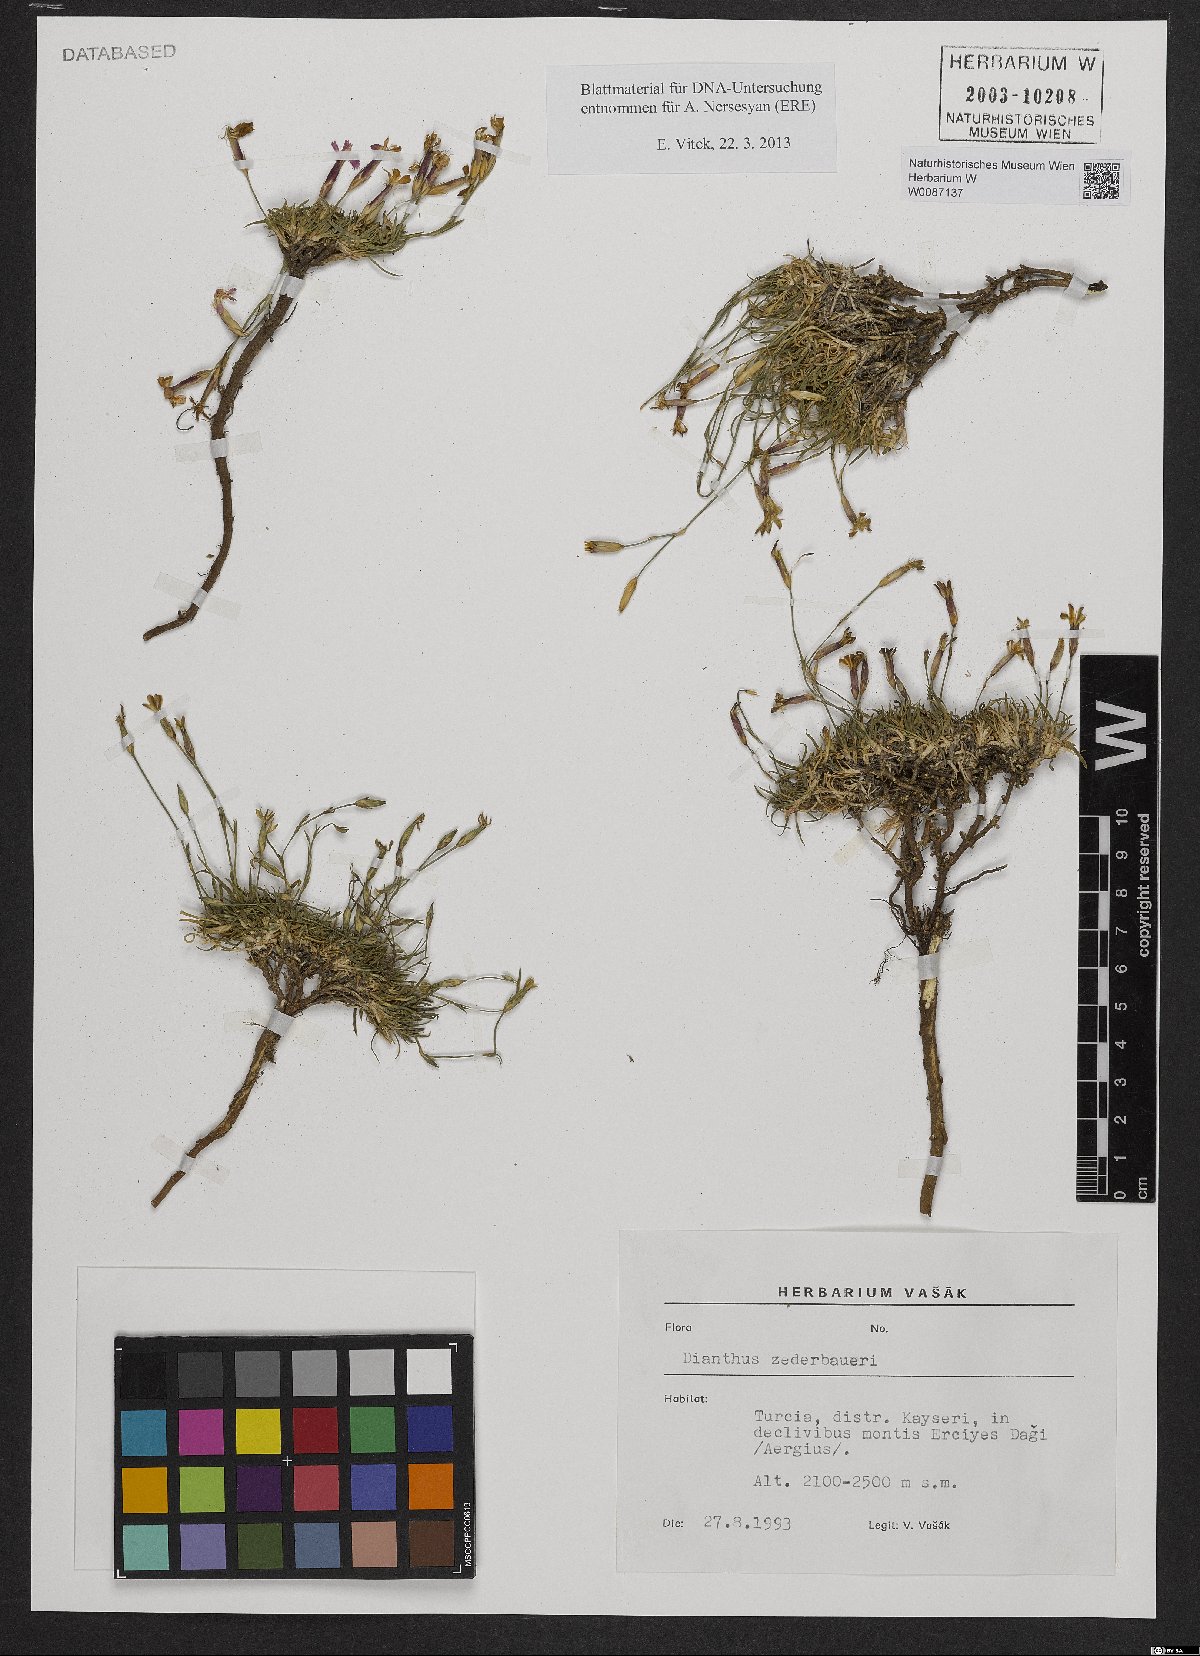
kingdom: Plantae
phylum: Tracheophyta
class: Magnoliopsida
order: Caryophyllales
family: Caryophyllaceae
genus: Dianthus
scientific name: Dianthus zederbaueri
